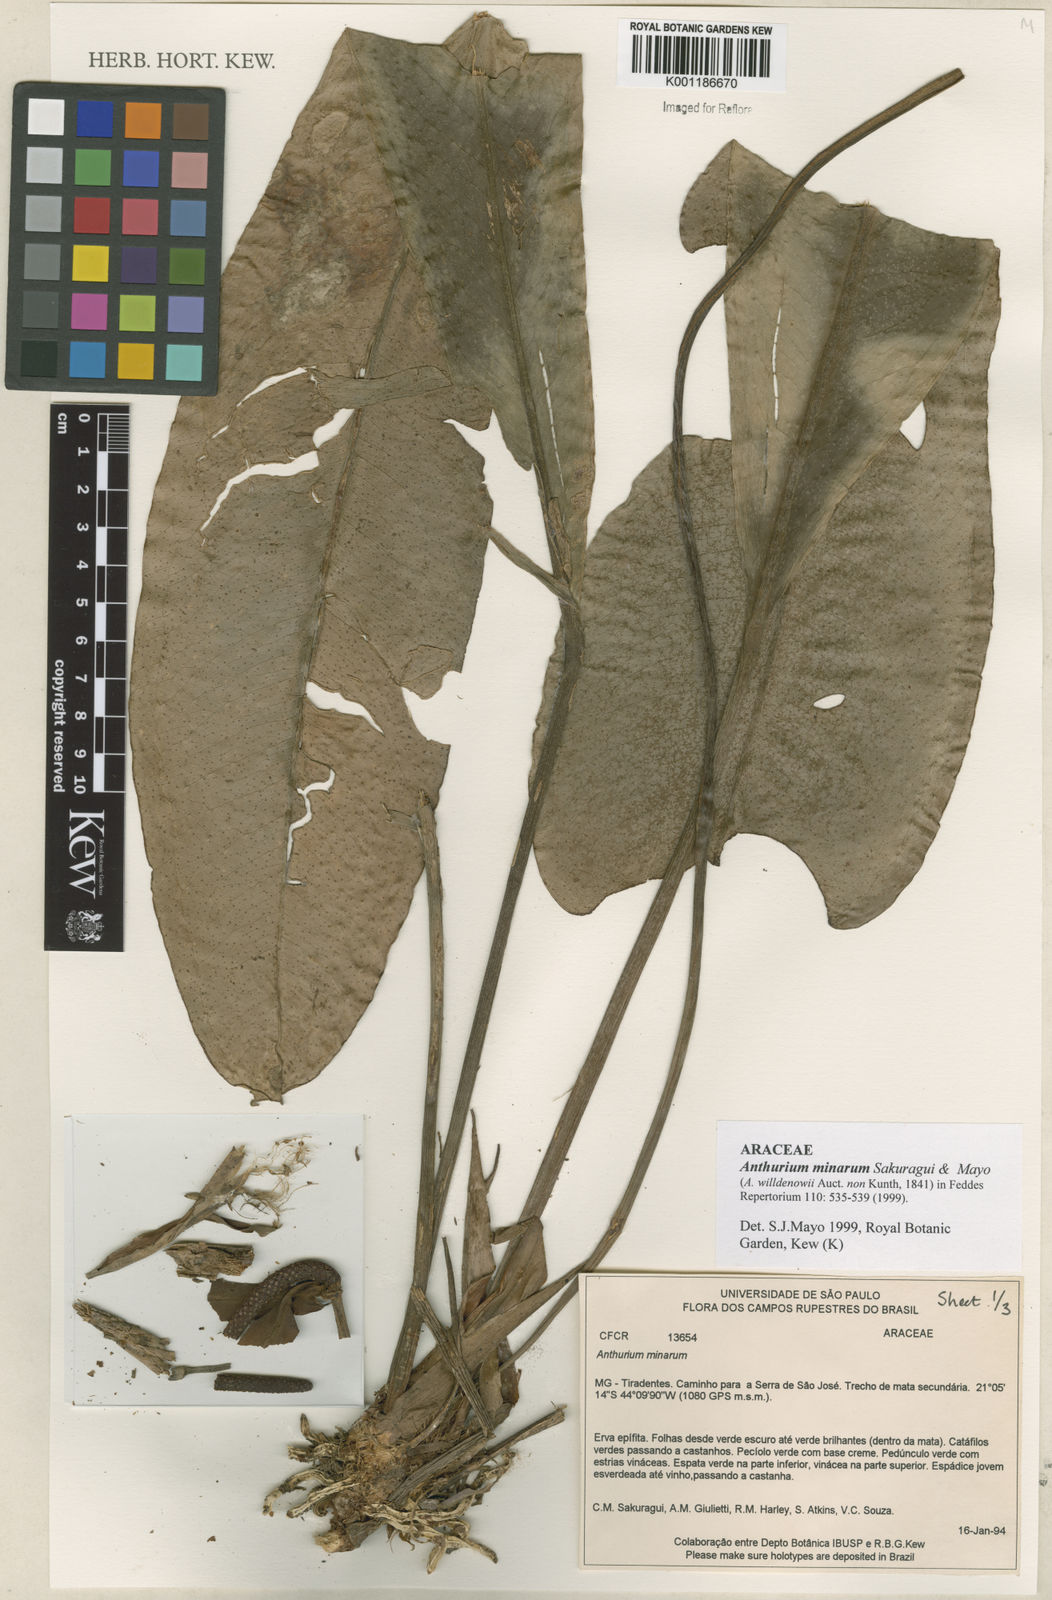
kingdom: Plantae
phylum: Tracheophyta
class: Liliopsida
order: Alismatales
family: Araceae
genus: Anthurium
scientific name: Anthurium minarum
